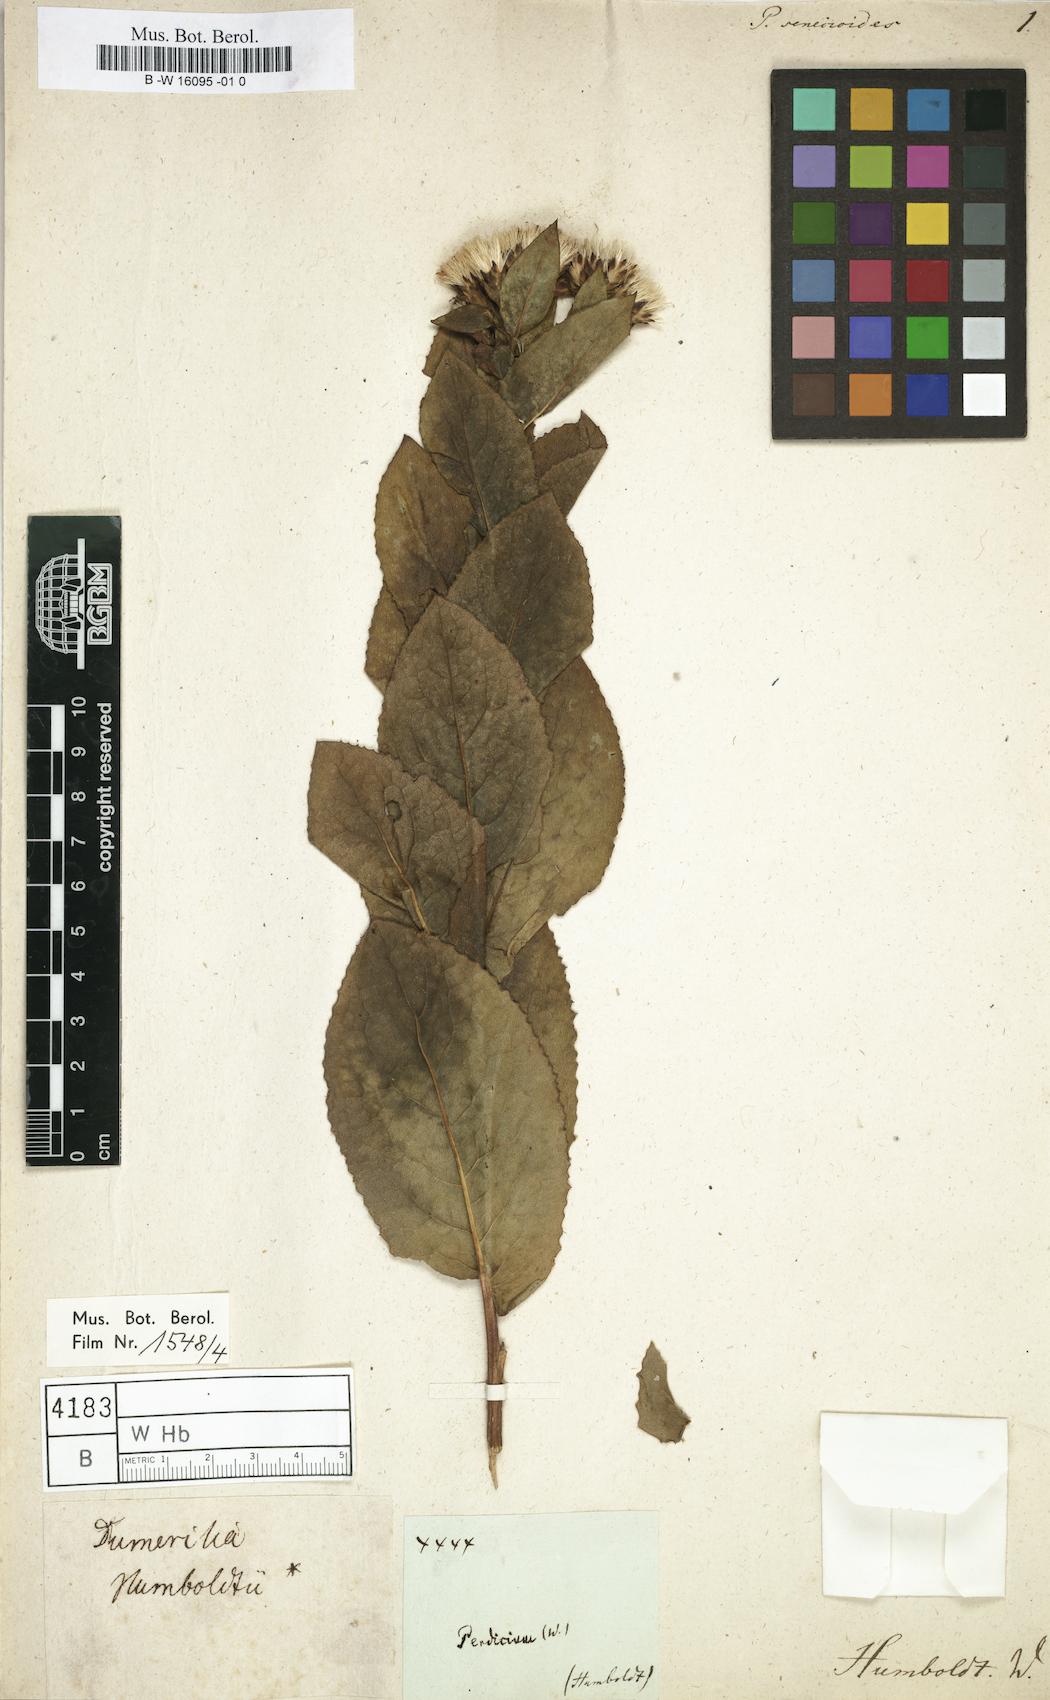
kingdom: Plantae
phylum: Tracheophyta
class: Magnoliopsida
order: Asterales
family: Asteraceae
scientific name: Asteraceae
